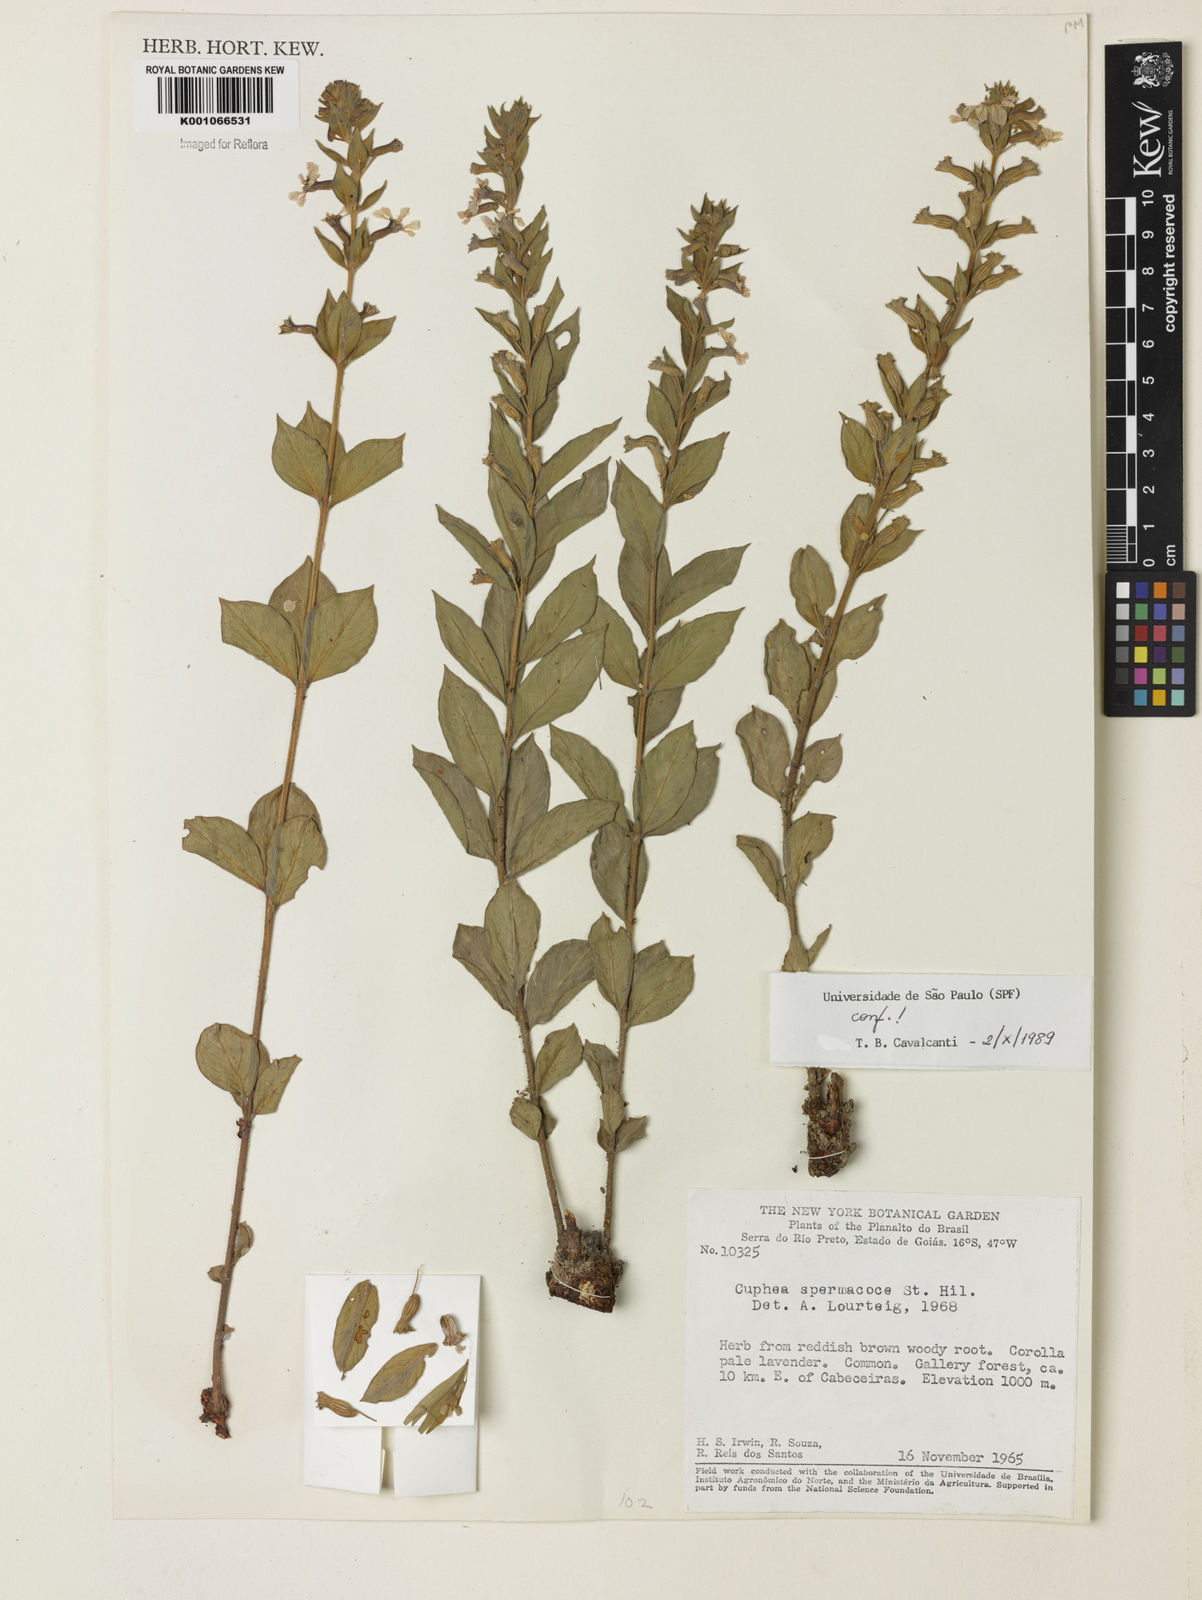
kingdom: Plantae
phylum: Tracheophyta
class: Magnoliopsida
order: Myrtales
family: Lythraceae
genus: Cuphea
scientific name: Cuphea spermacoce
